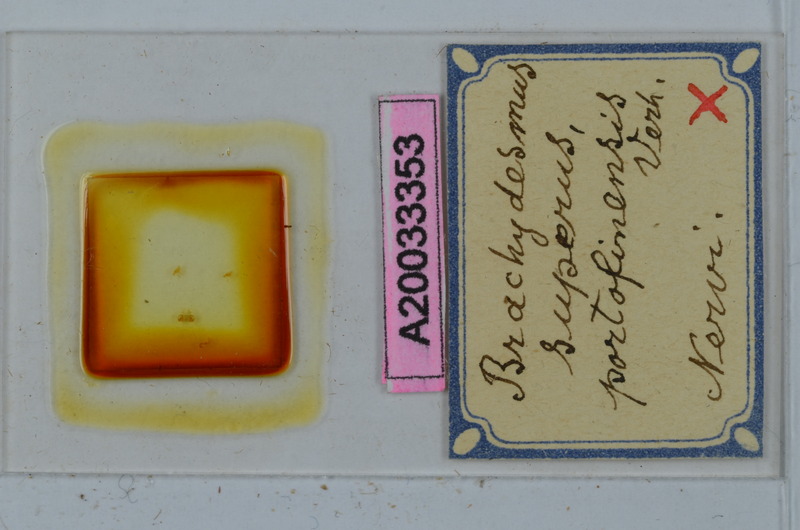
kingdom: Animalia
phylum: Arthropoda
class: Diplopoda
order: Polydesmida
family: Polydesmidae
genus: Brachydesmus
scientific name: Brachydesmus superus
